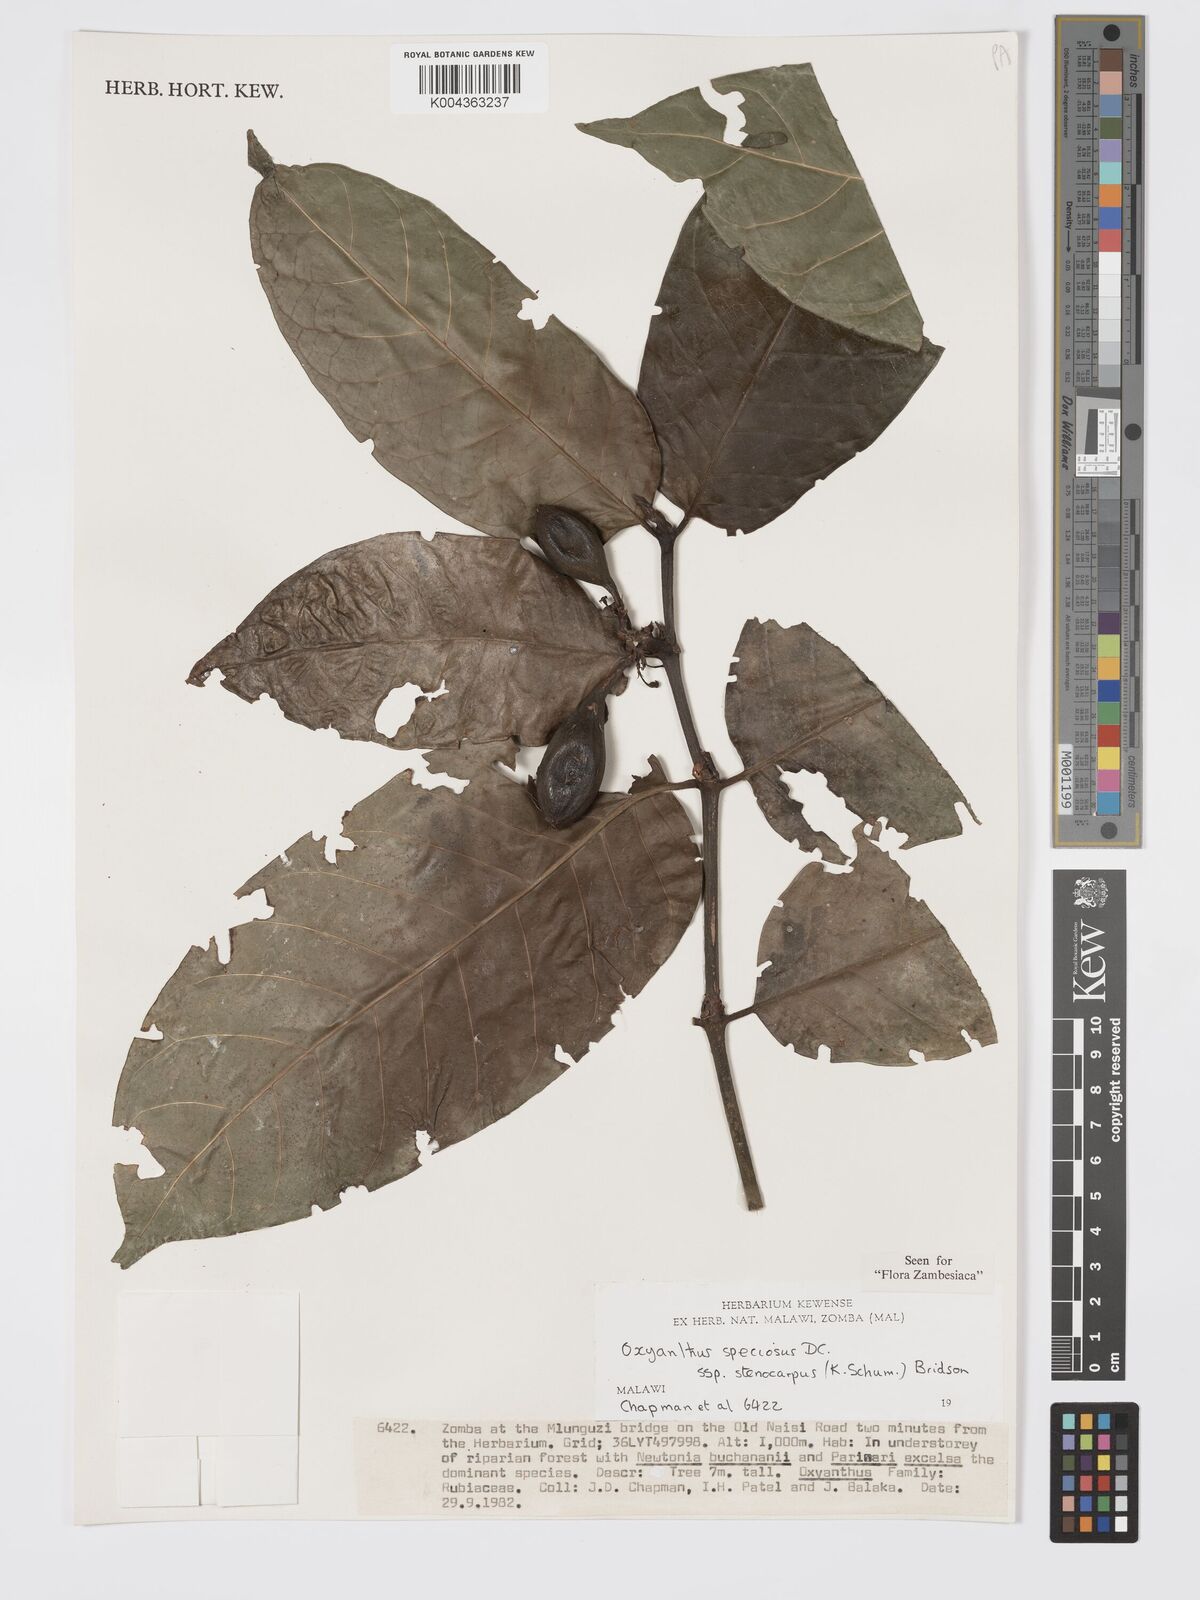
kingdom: Plantae
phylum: Tracheophyta
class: Magnoliopsida
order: Gentianales
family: Rubiaceae
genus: Oxyanthus
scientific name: Oxyanthus speciosus
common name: Whipstick loquat
